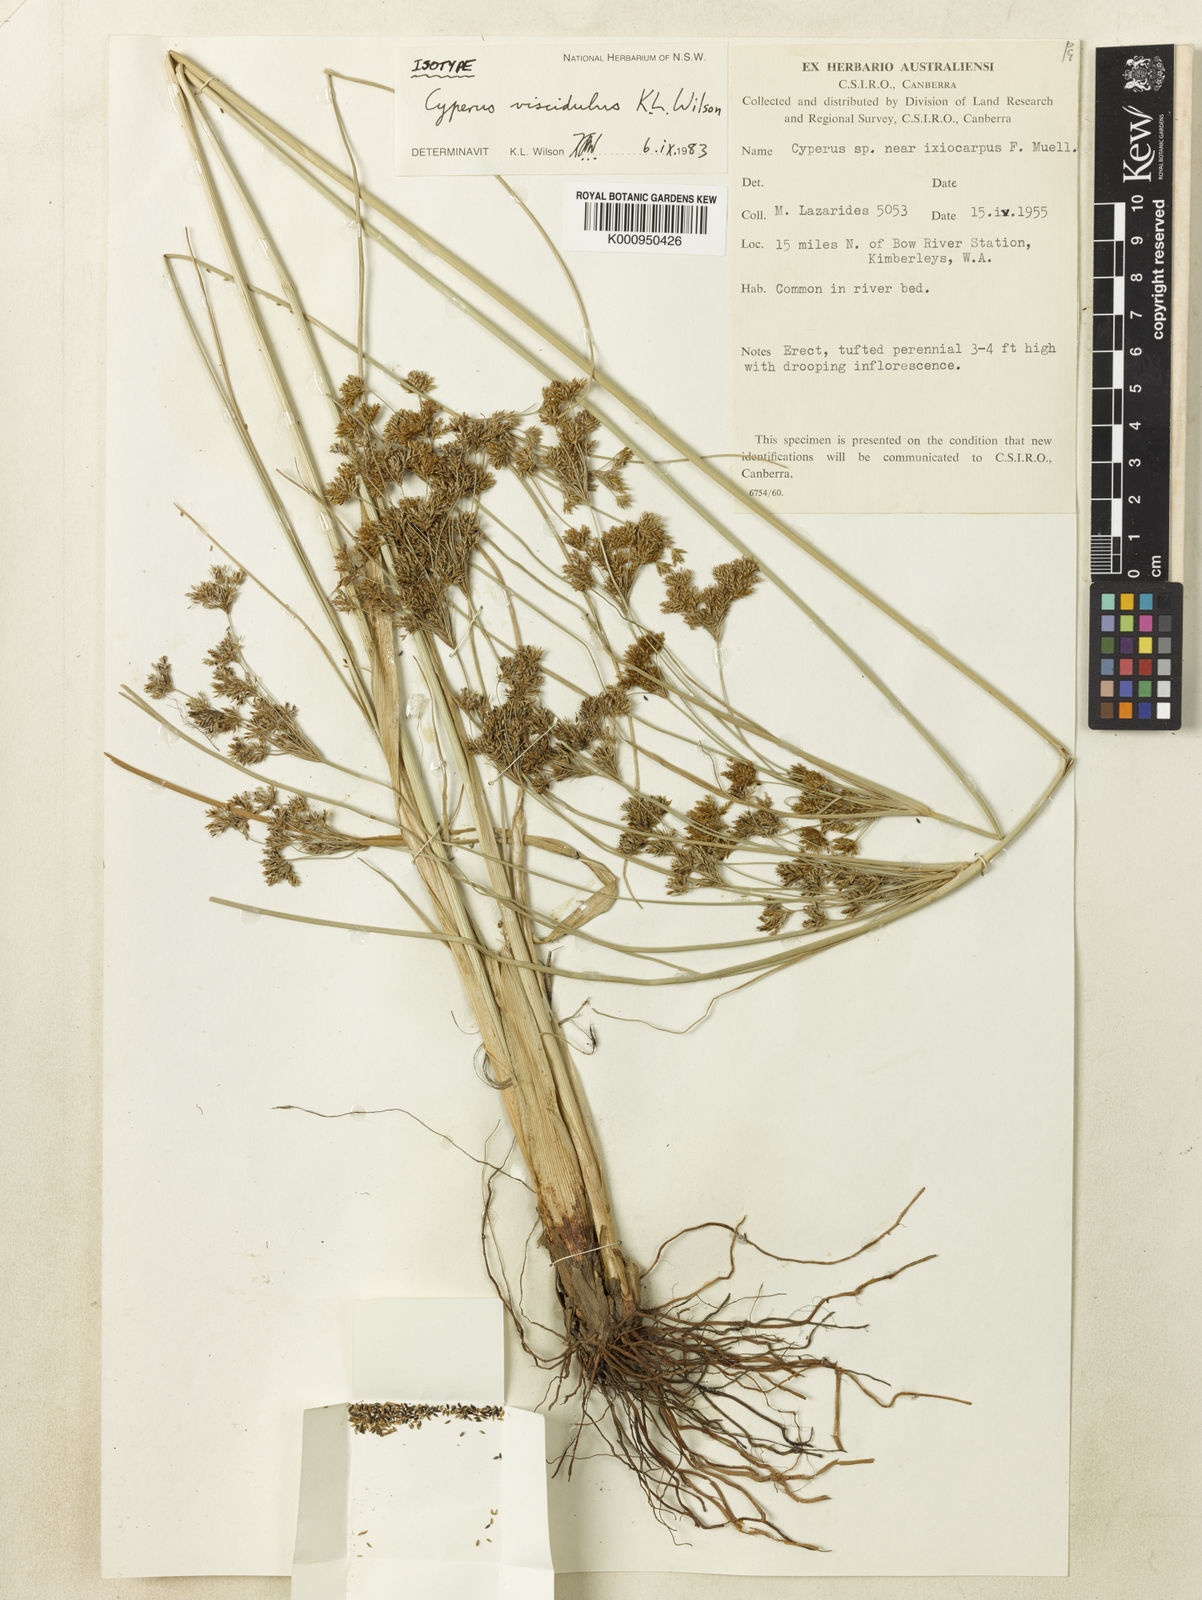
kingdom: Plantae
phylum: Tracheophyta
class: Liliopsida
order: Poales
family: Cyperaceae
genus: Cyperus
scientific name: Cyperus viscidulus
